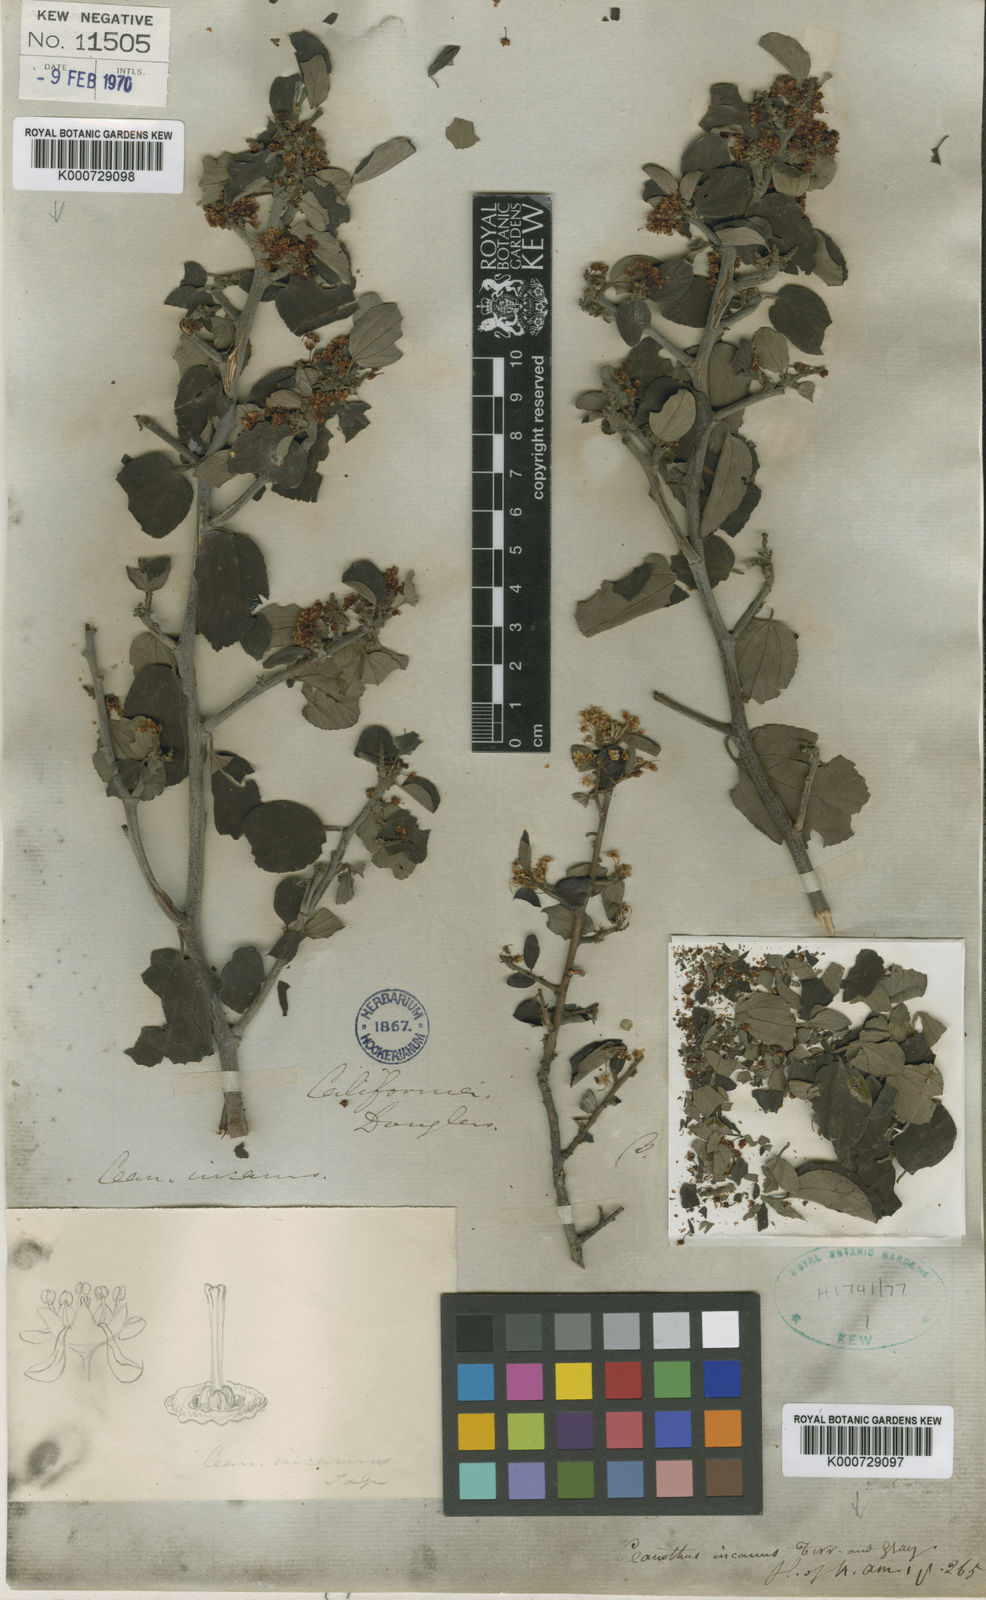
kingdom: Plantae
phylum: Tracheophyta
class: Magnoliopsida
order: Rosales
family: Rhamnaceae
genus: Ceanothus
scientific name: Ceanothus incanus
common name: Coast whitethorn
